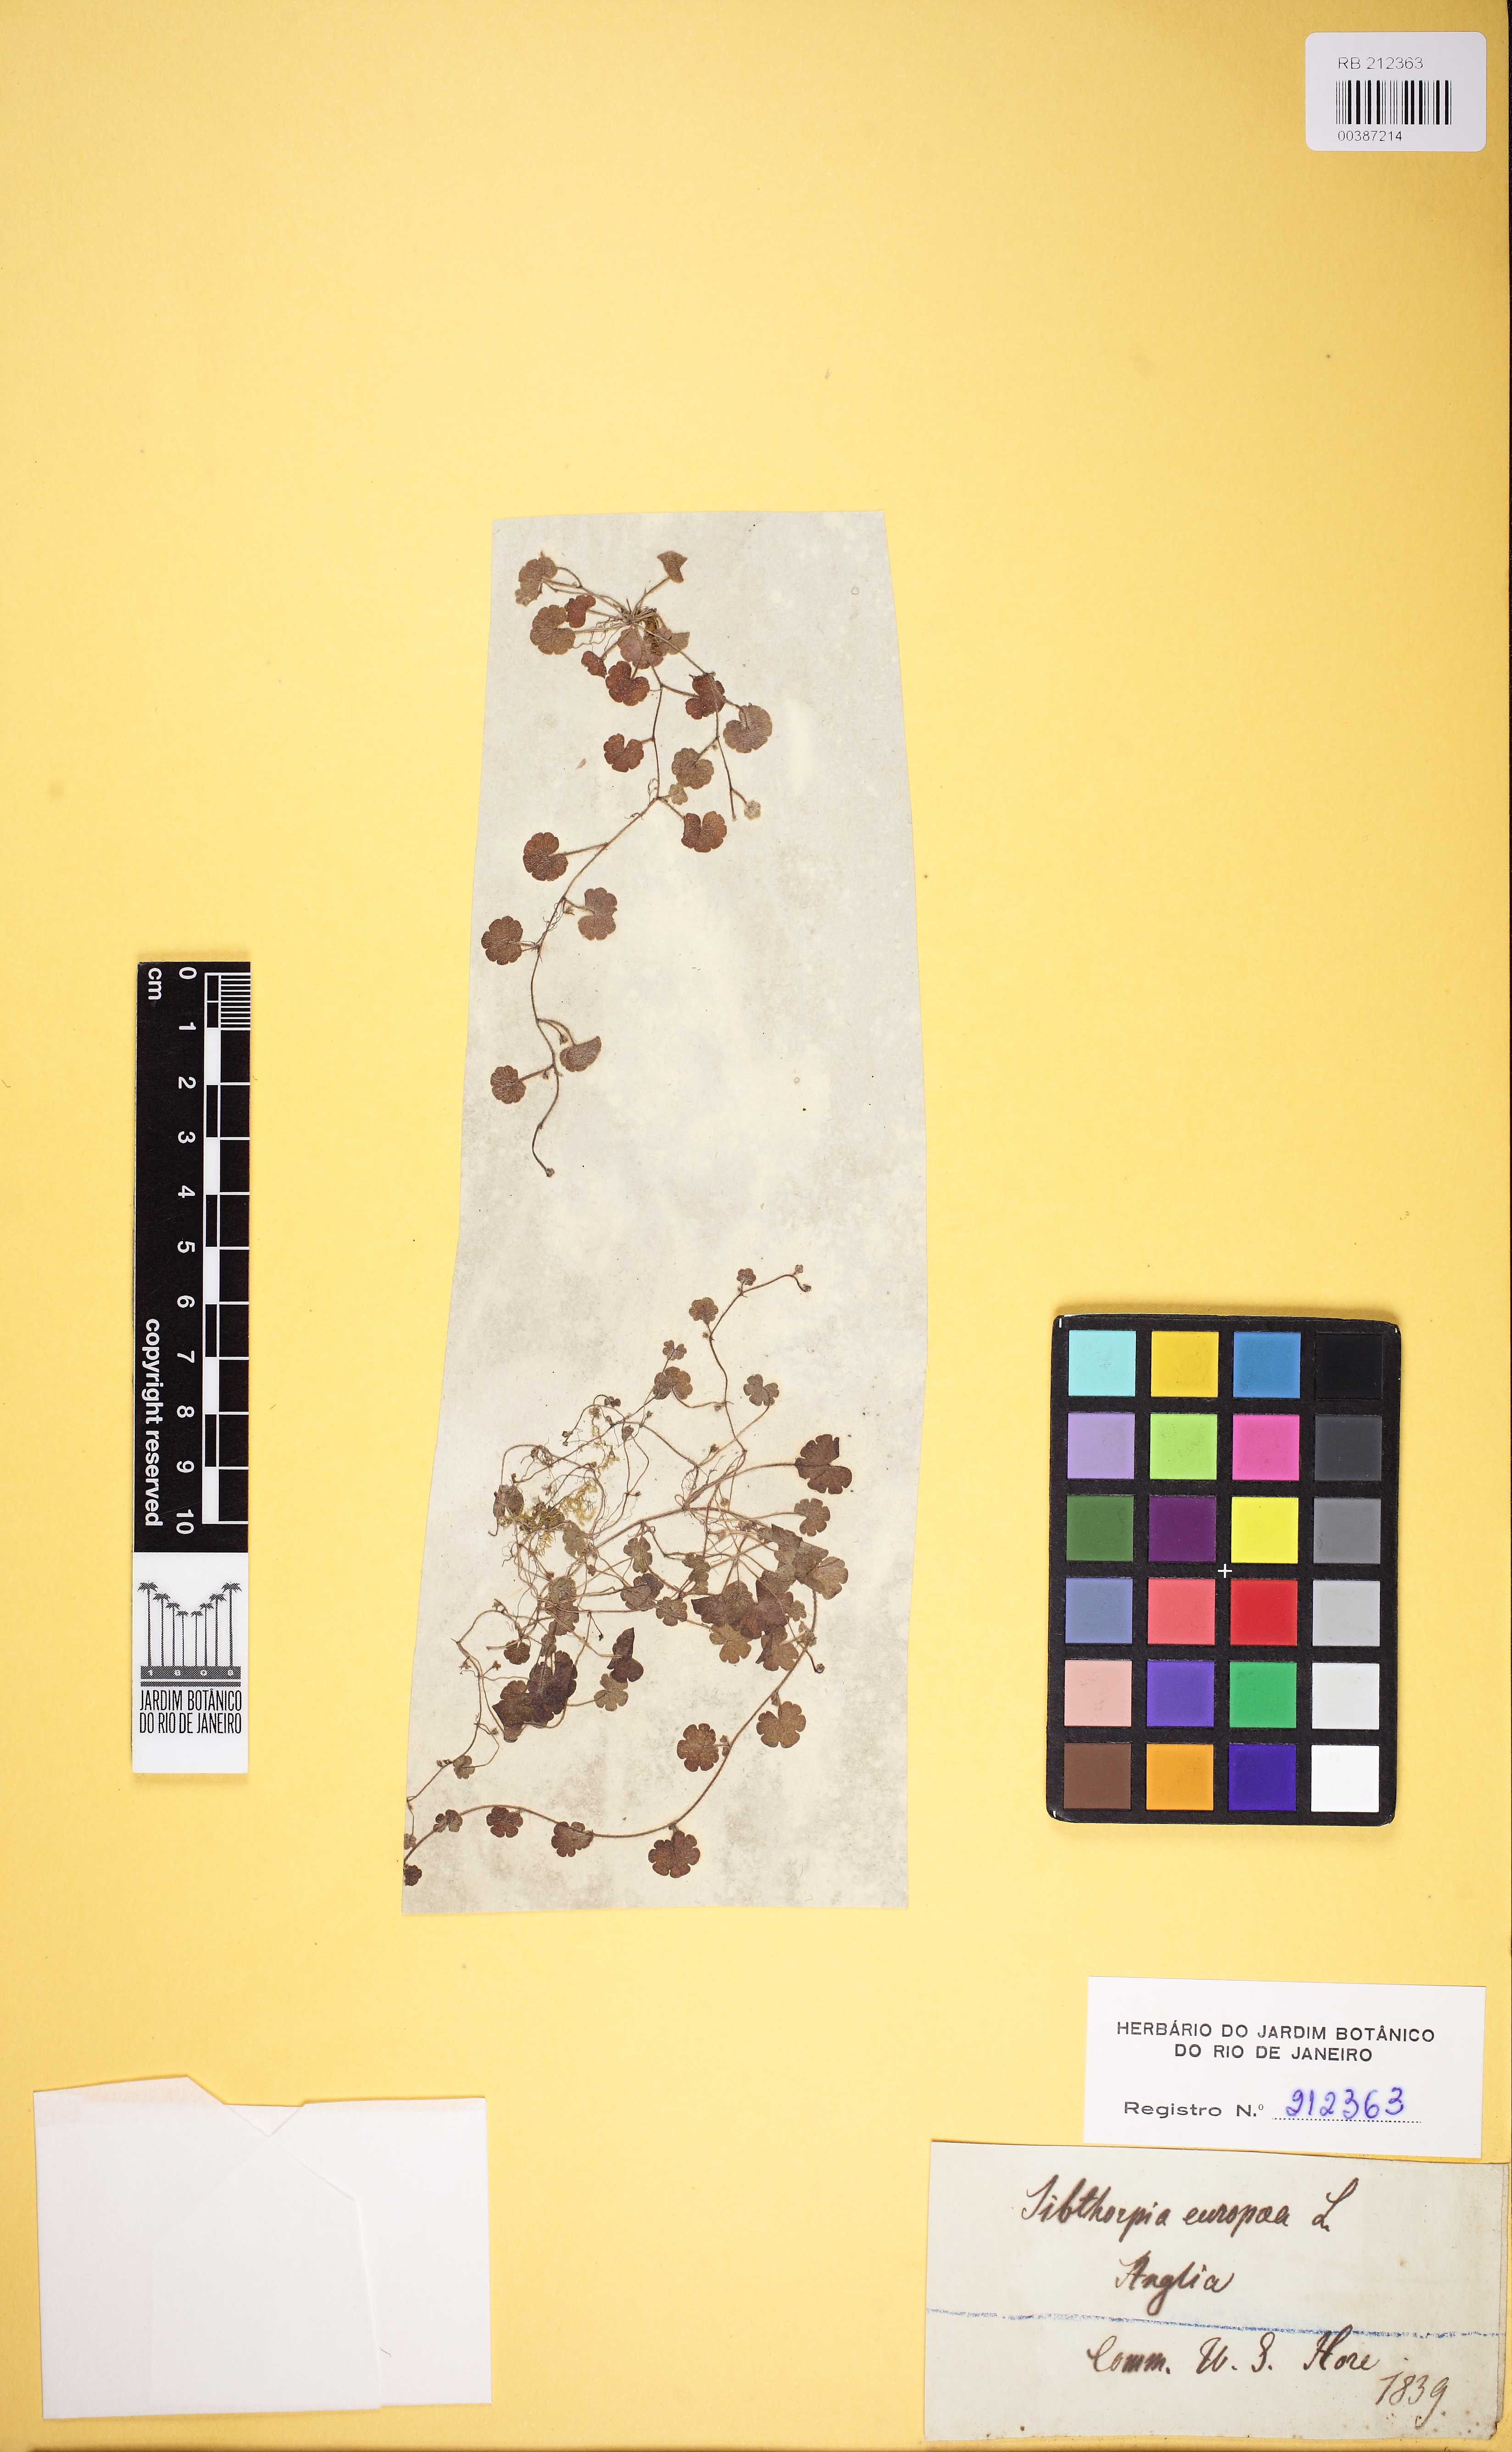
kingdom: Plantae
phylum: Tracheophyta
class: Magnoliopsida
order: Lamiales
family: Plantaginaceae
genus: Sibthorpia
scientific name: Sibthorpia europaea
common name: Cornish moneywort
